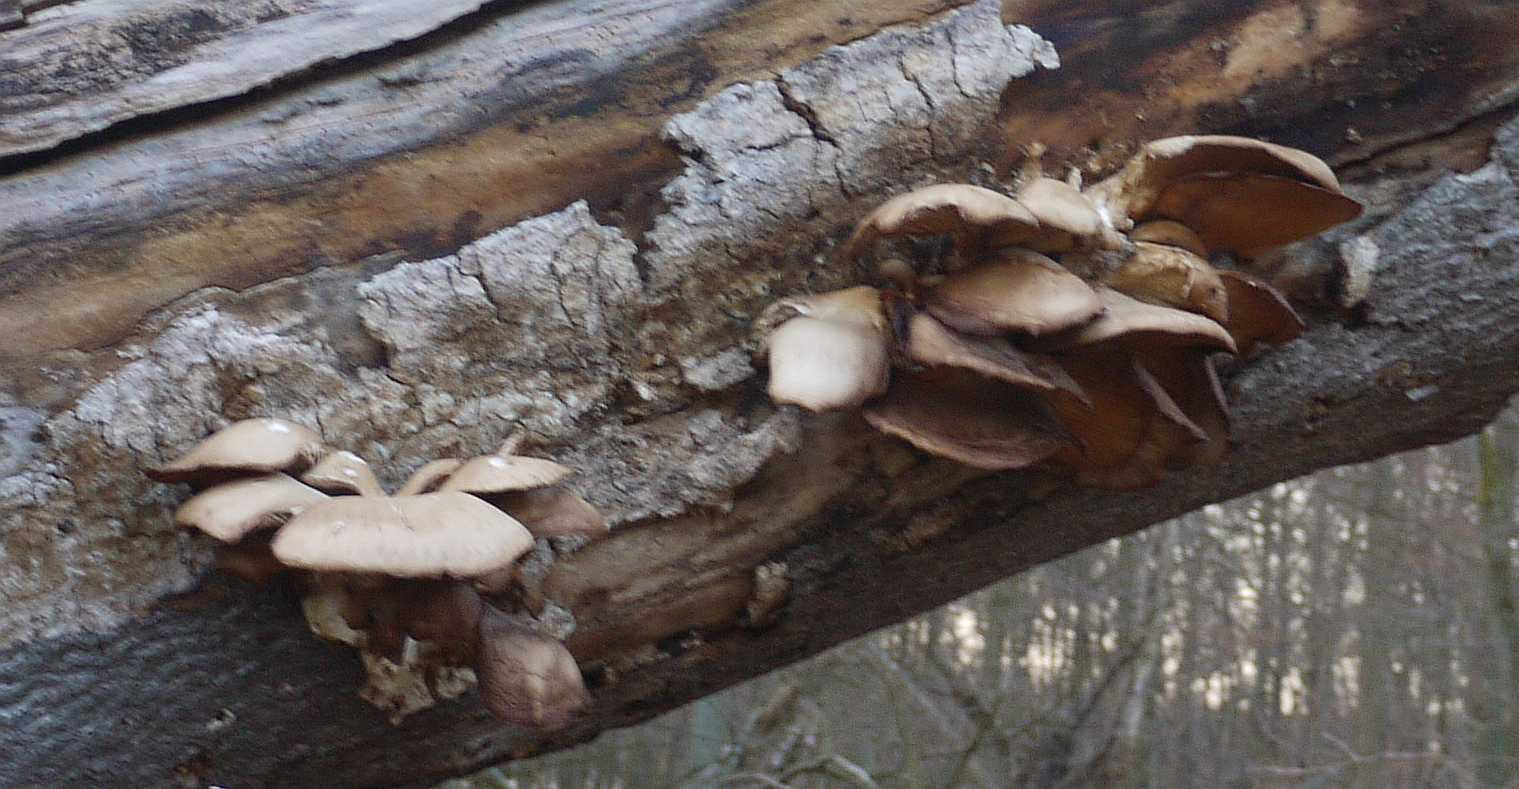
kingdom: Fungi
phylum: Basidiomycota
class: Agaricomycetes
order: Agaricales
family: Pleurotaceae
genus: Pleurotus
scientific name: Pleurotus ostreatus
